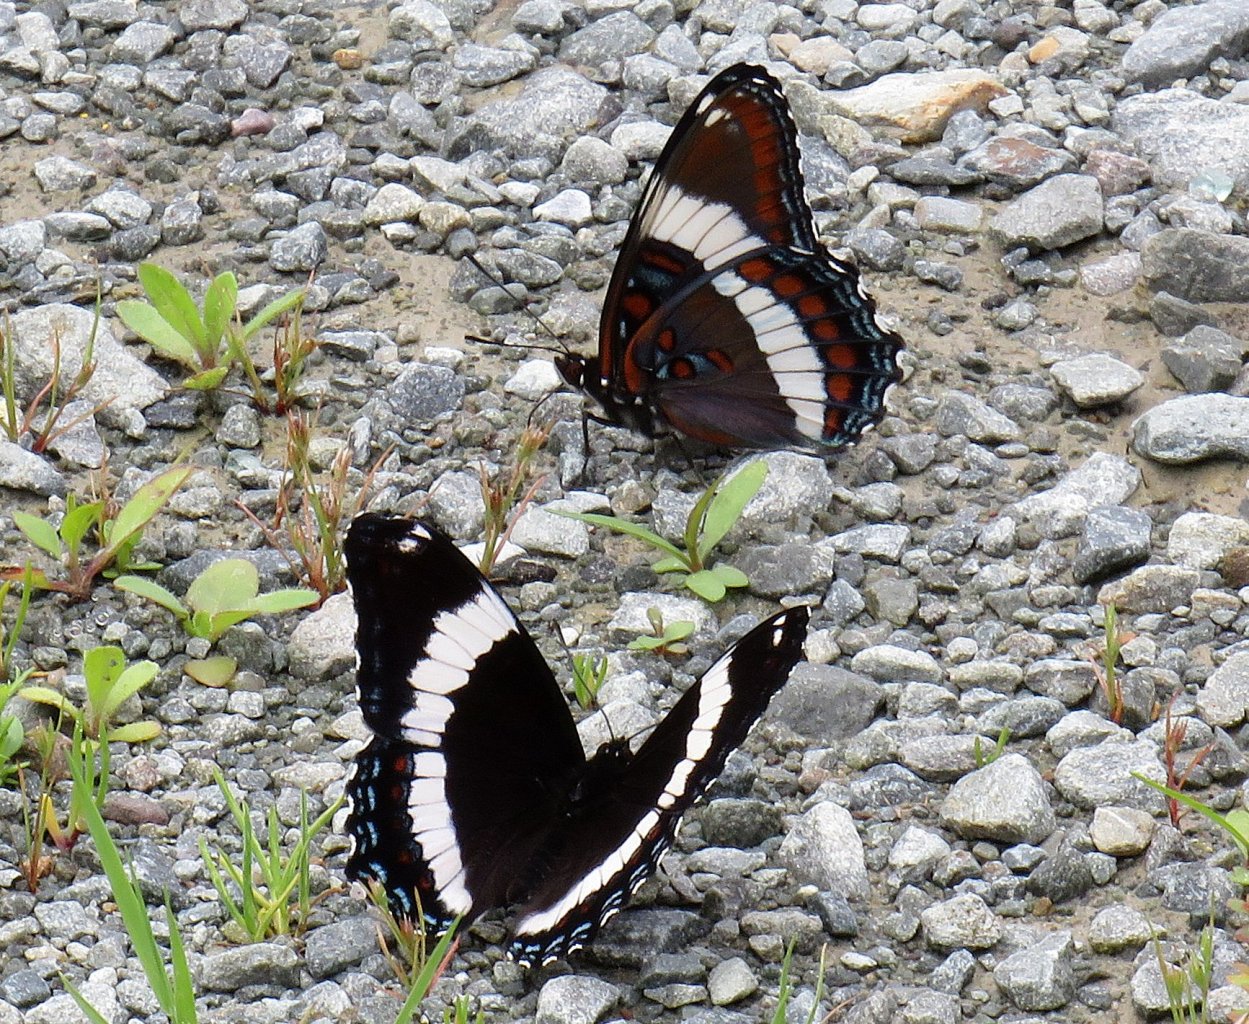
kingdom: Animalia
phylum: Arthropoda
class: Insecta
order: Lepidoptera
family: Nymphalidae
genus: Limenitis
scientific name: Limenitis arthemis
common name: Red-spotted Admiral
